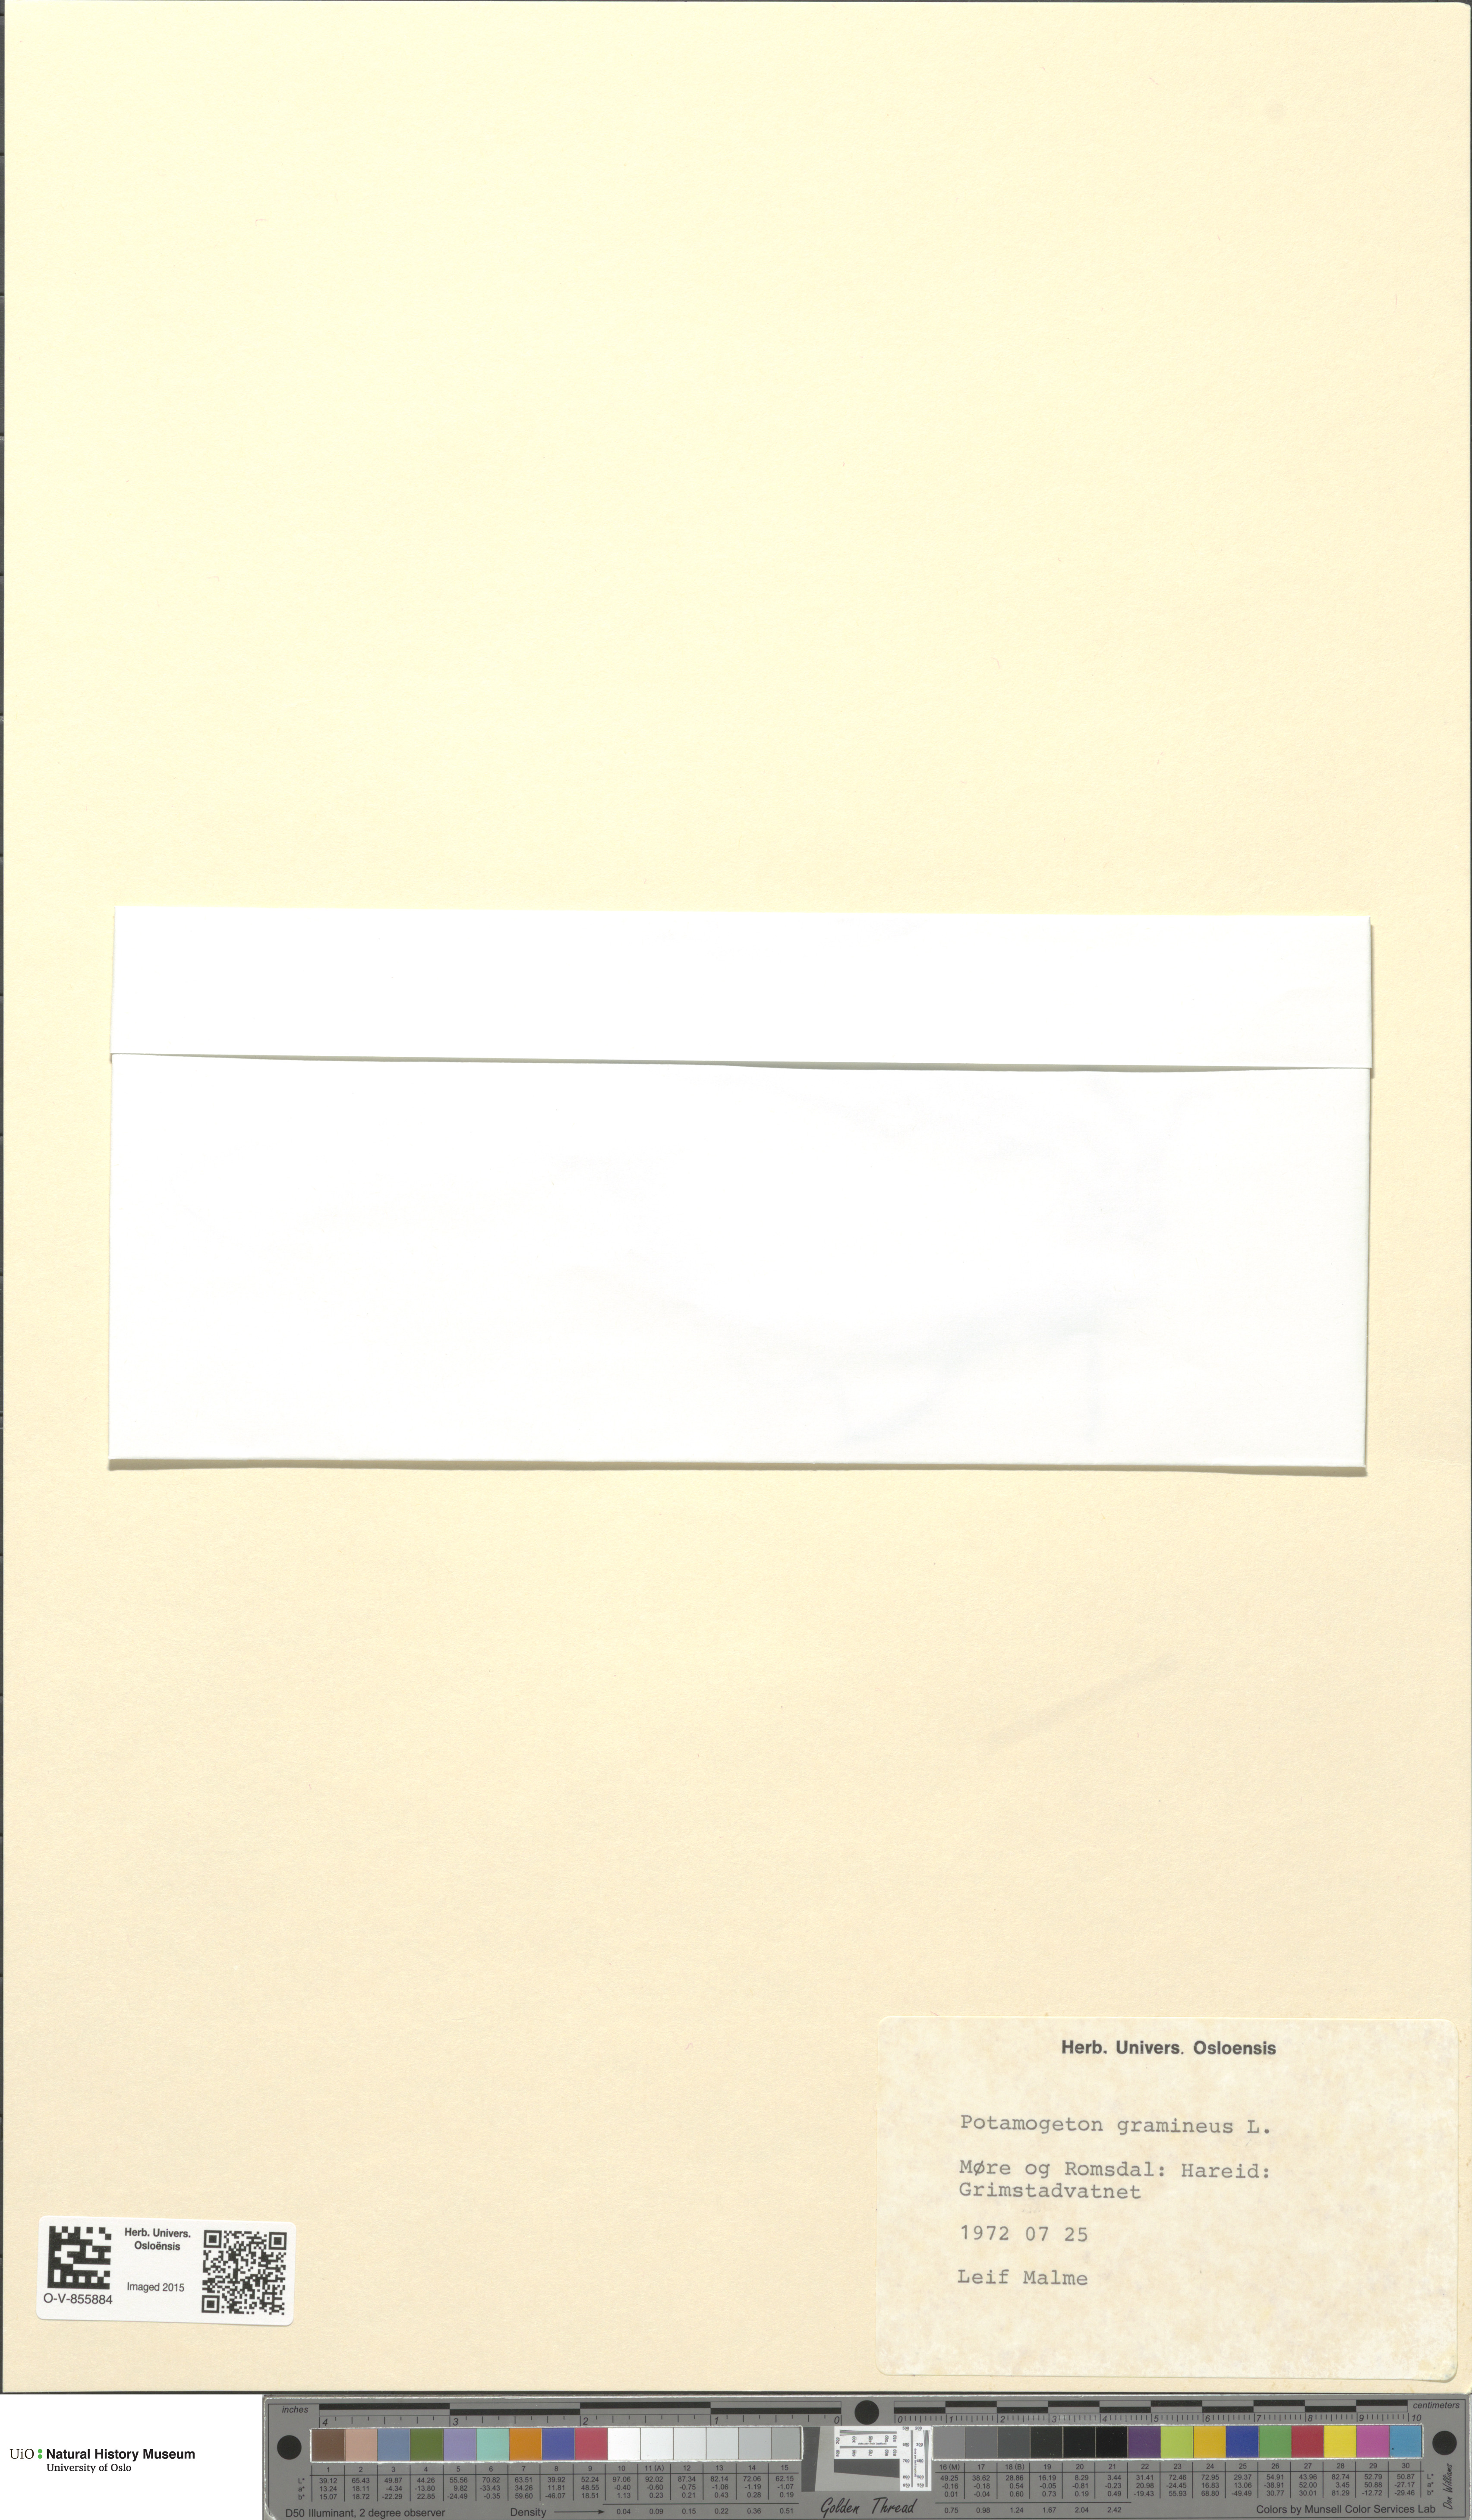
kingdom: Plantae
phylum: Tracheophyta
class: Liliopsida
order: Alismatales
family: Potamogetonaceae
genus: Potamogeton
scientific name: Potamogeton gramineus
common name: Various-leaved pondweed
